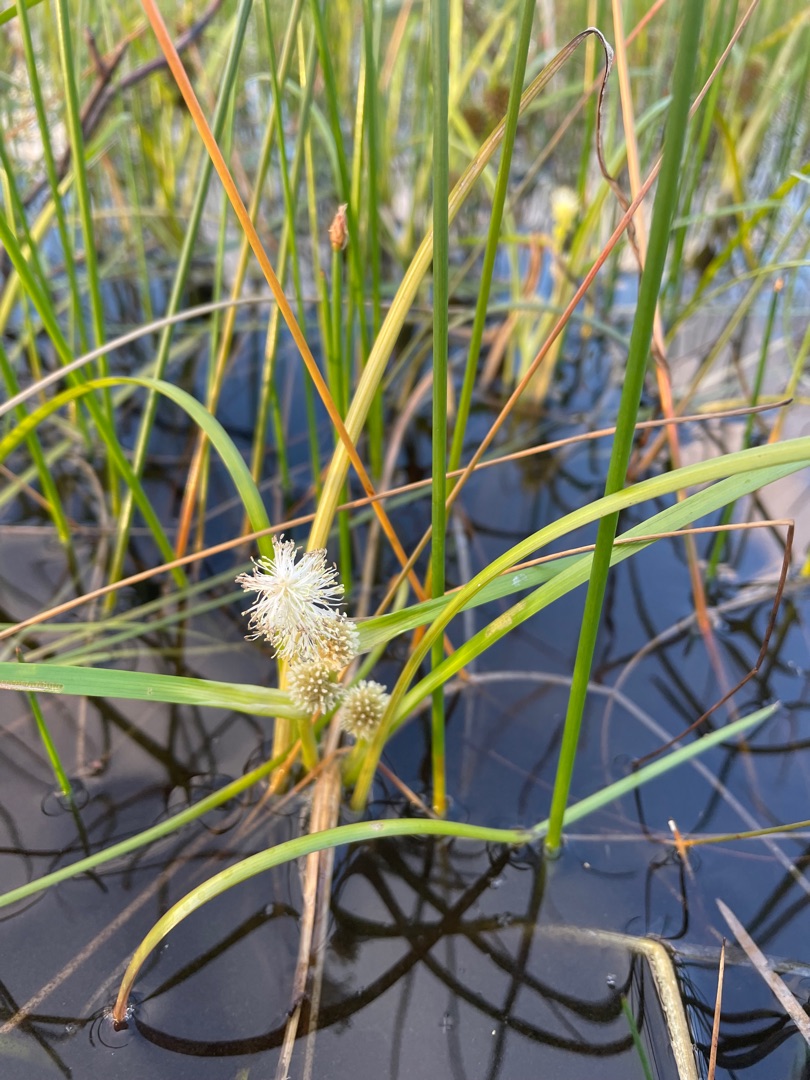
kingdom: Plantae
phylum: Tracheophyta
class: Liliopsida
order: Poales
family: Typhaceae
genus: Sparganium
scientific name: Sparganium angustifolium
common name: Smalbladet pindsvineknop
